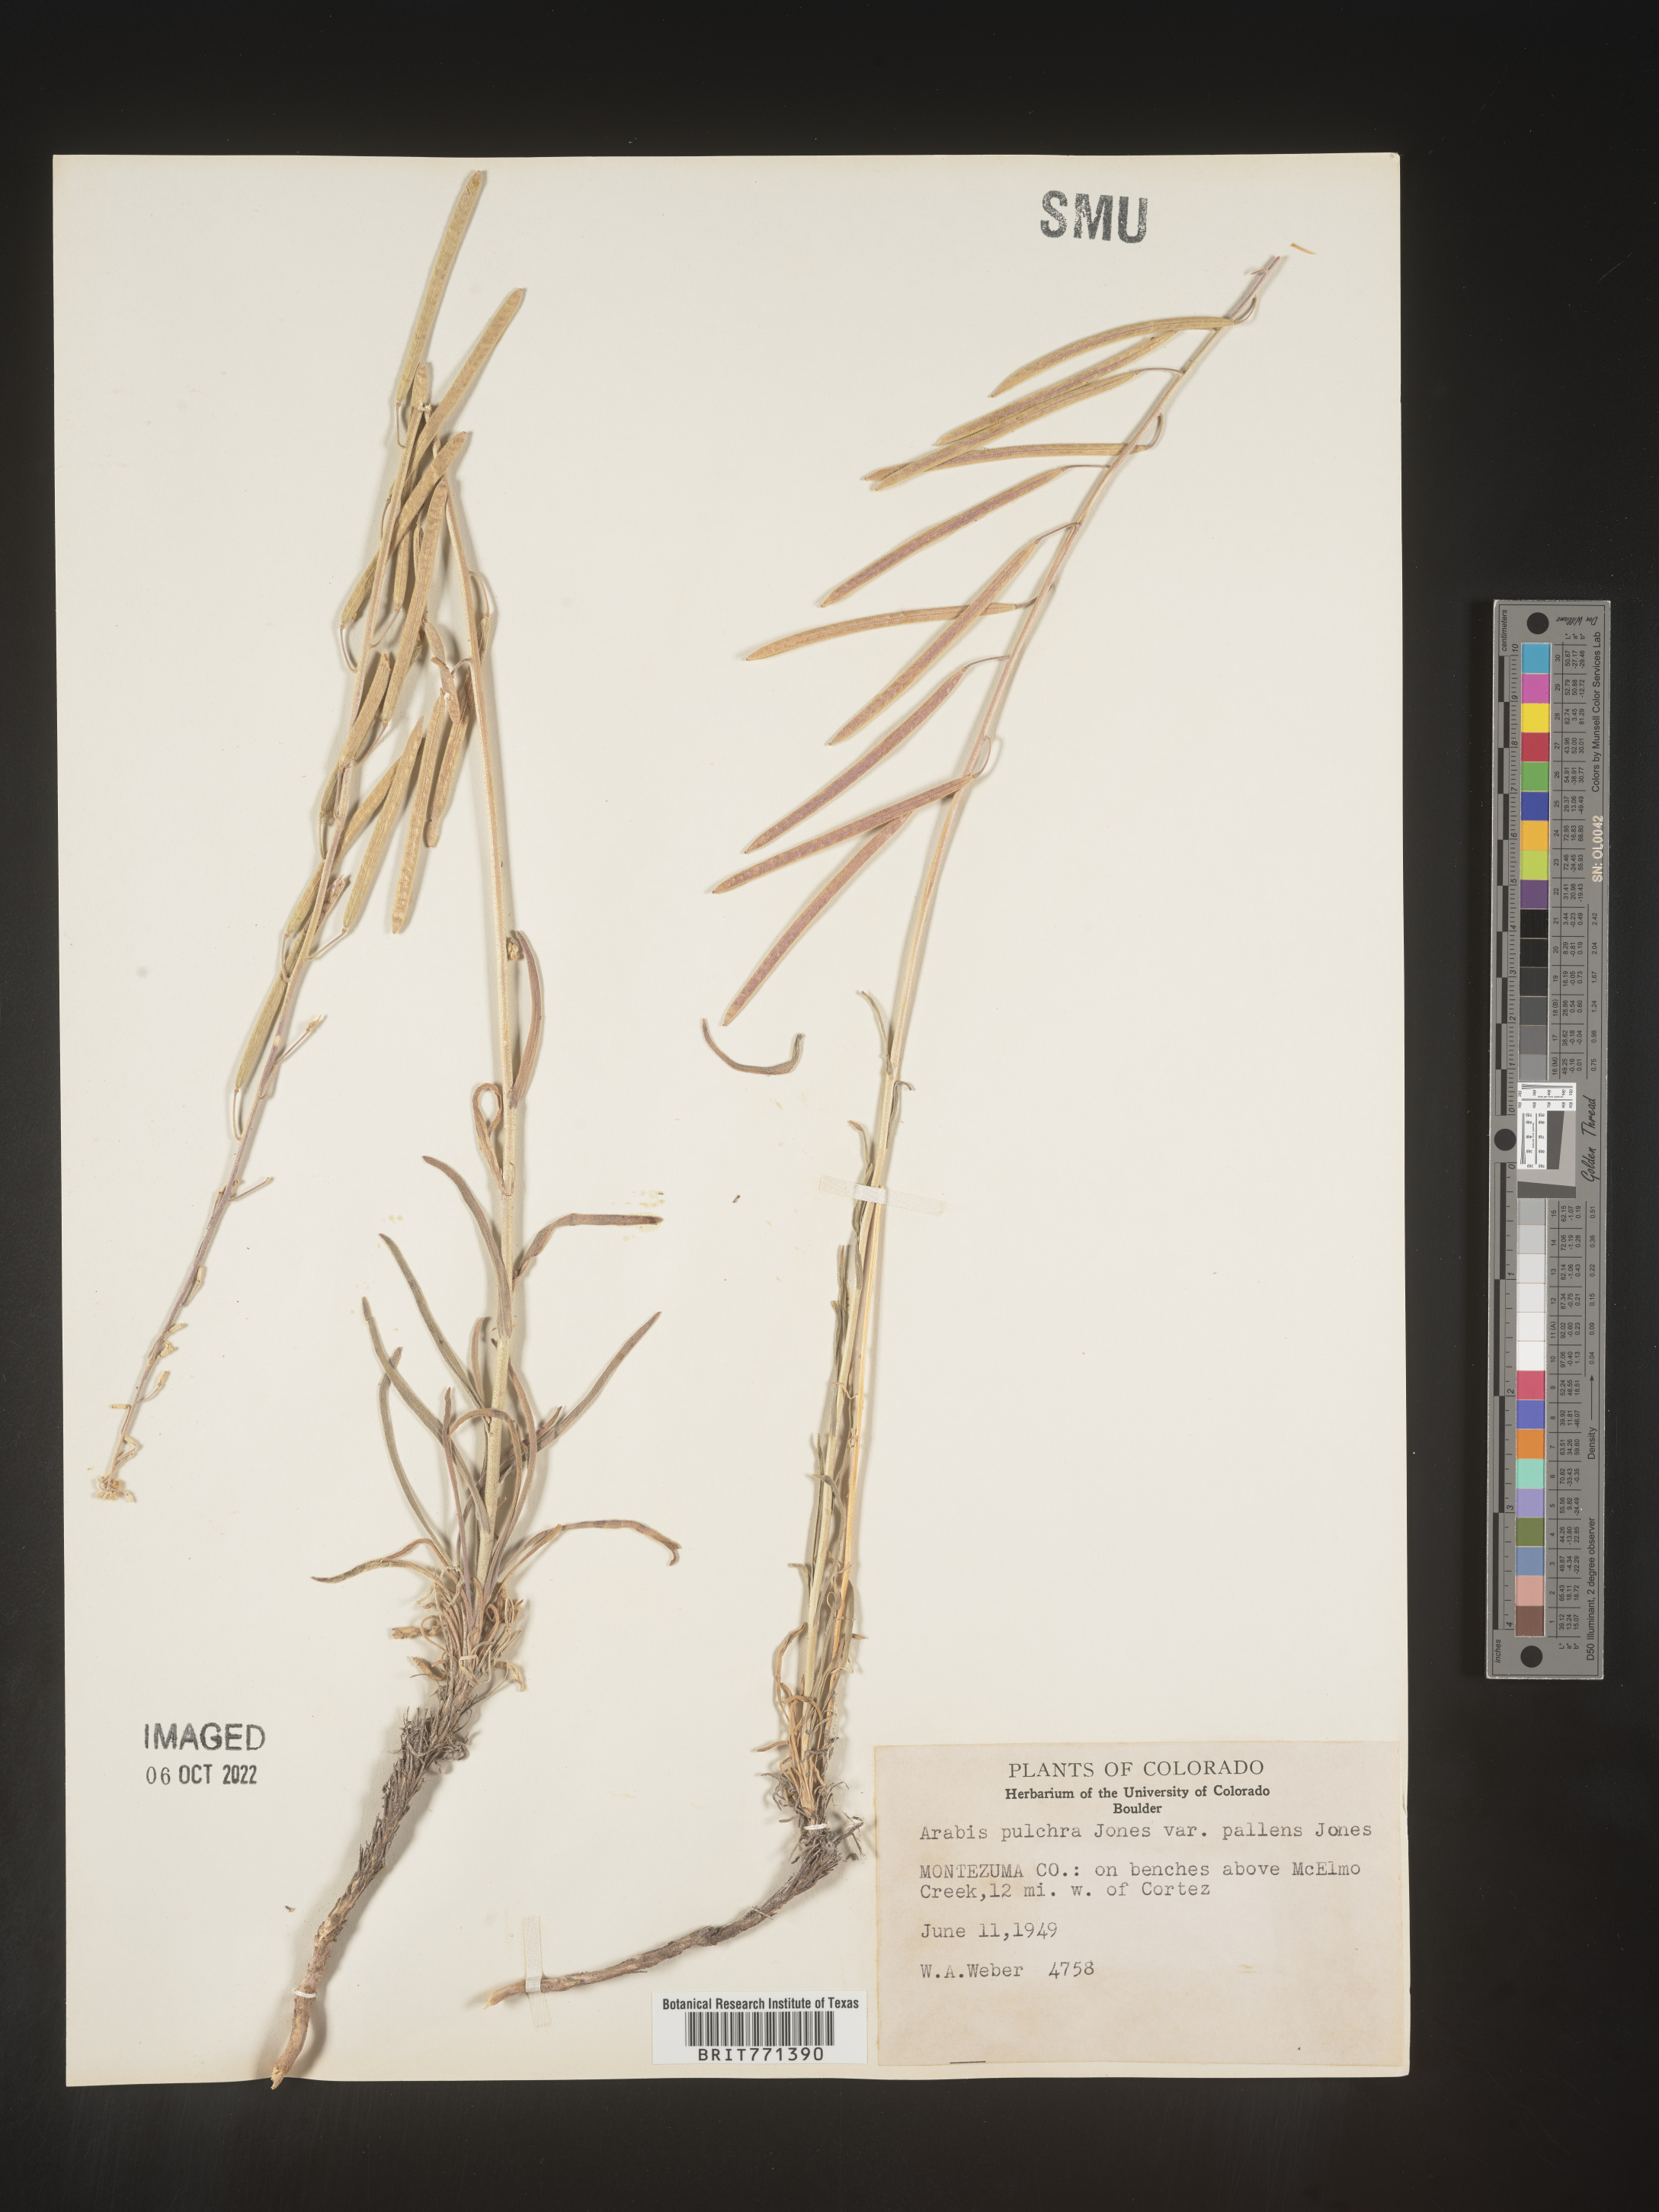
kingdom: Plantae
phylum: Tracheophyta
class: Magnoliopsida
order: Brassicales
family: Brassicaceae
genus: Arabis
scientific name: Arabis
